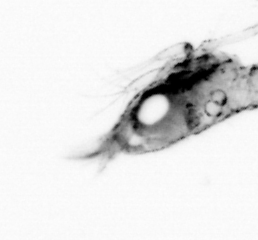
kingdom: Animalia
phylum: Arthropoda
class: Maxillopoda
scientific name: Maxillopoda
